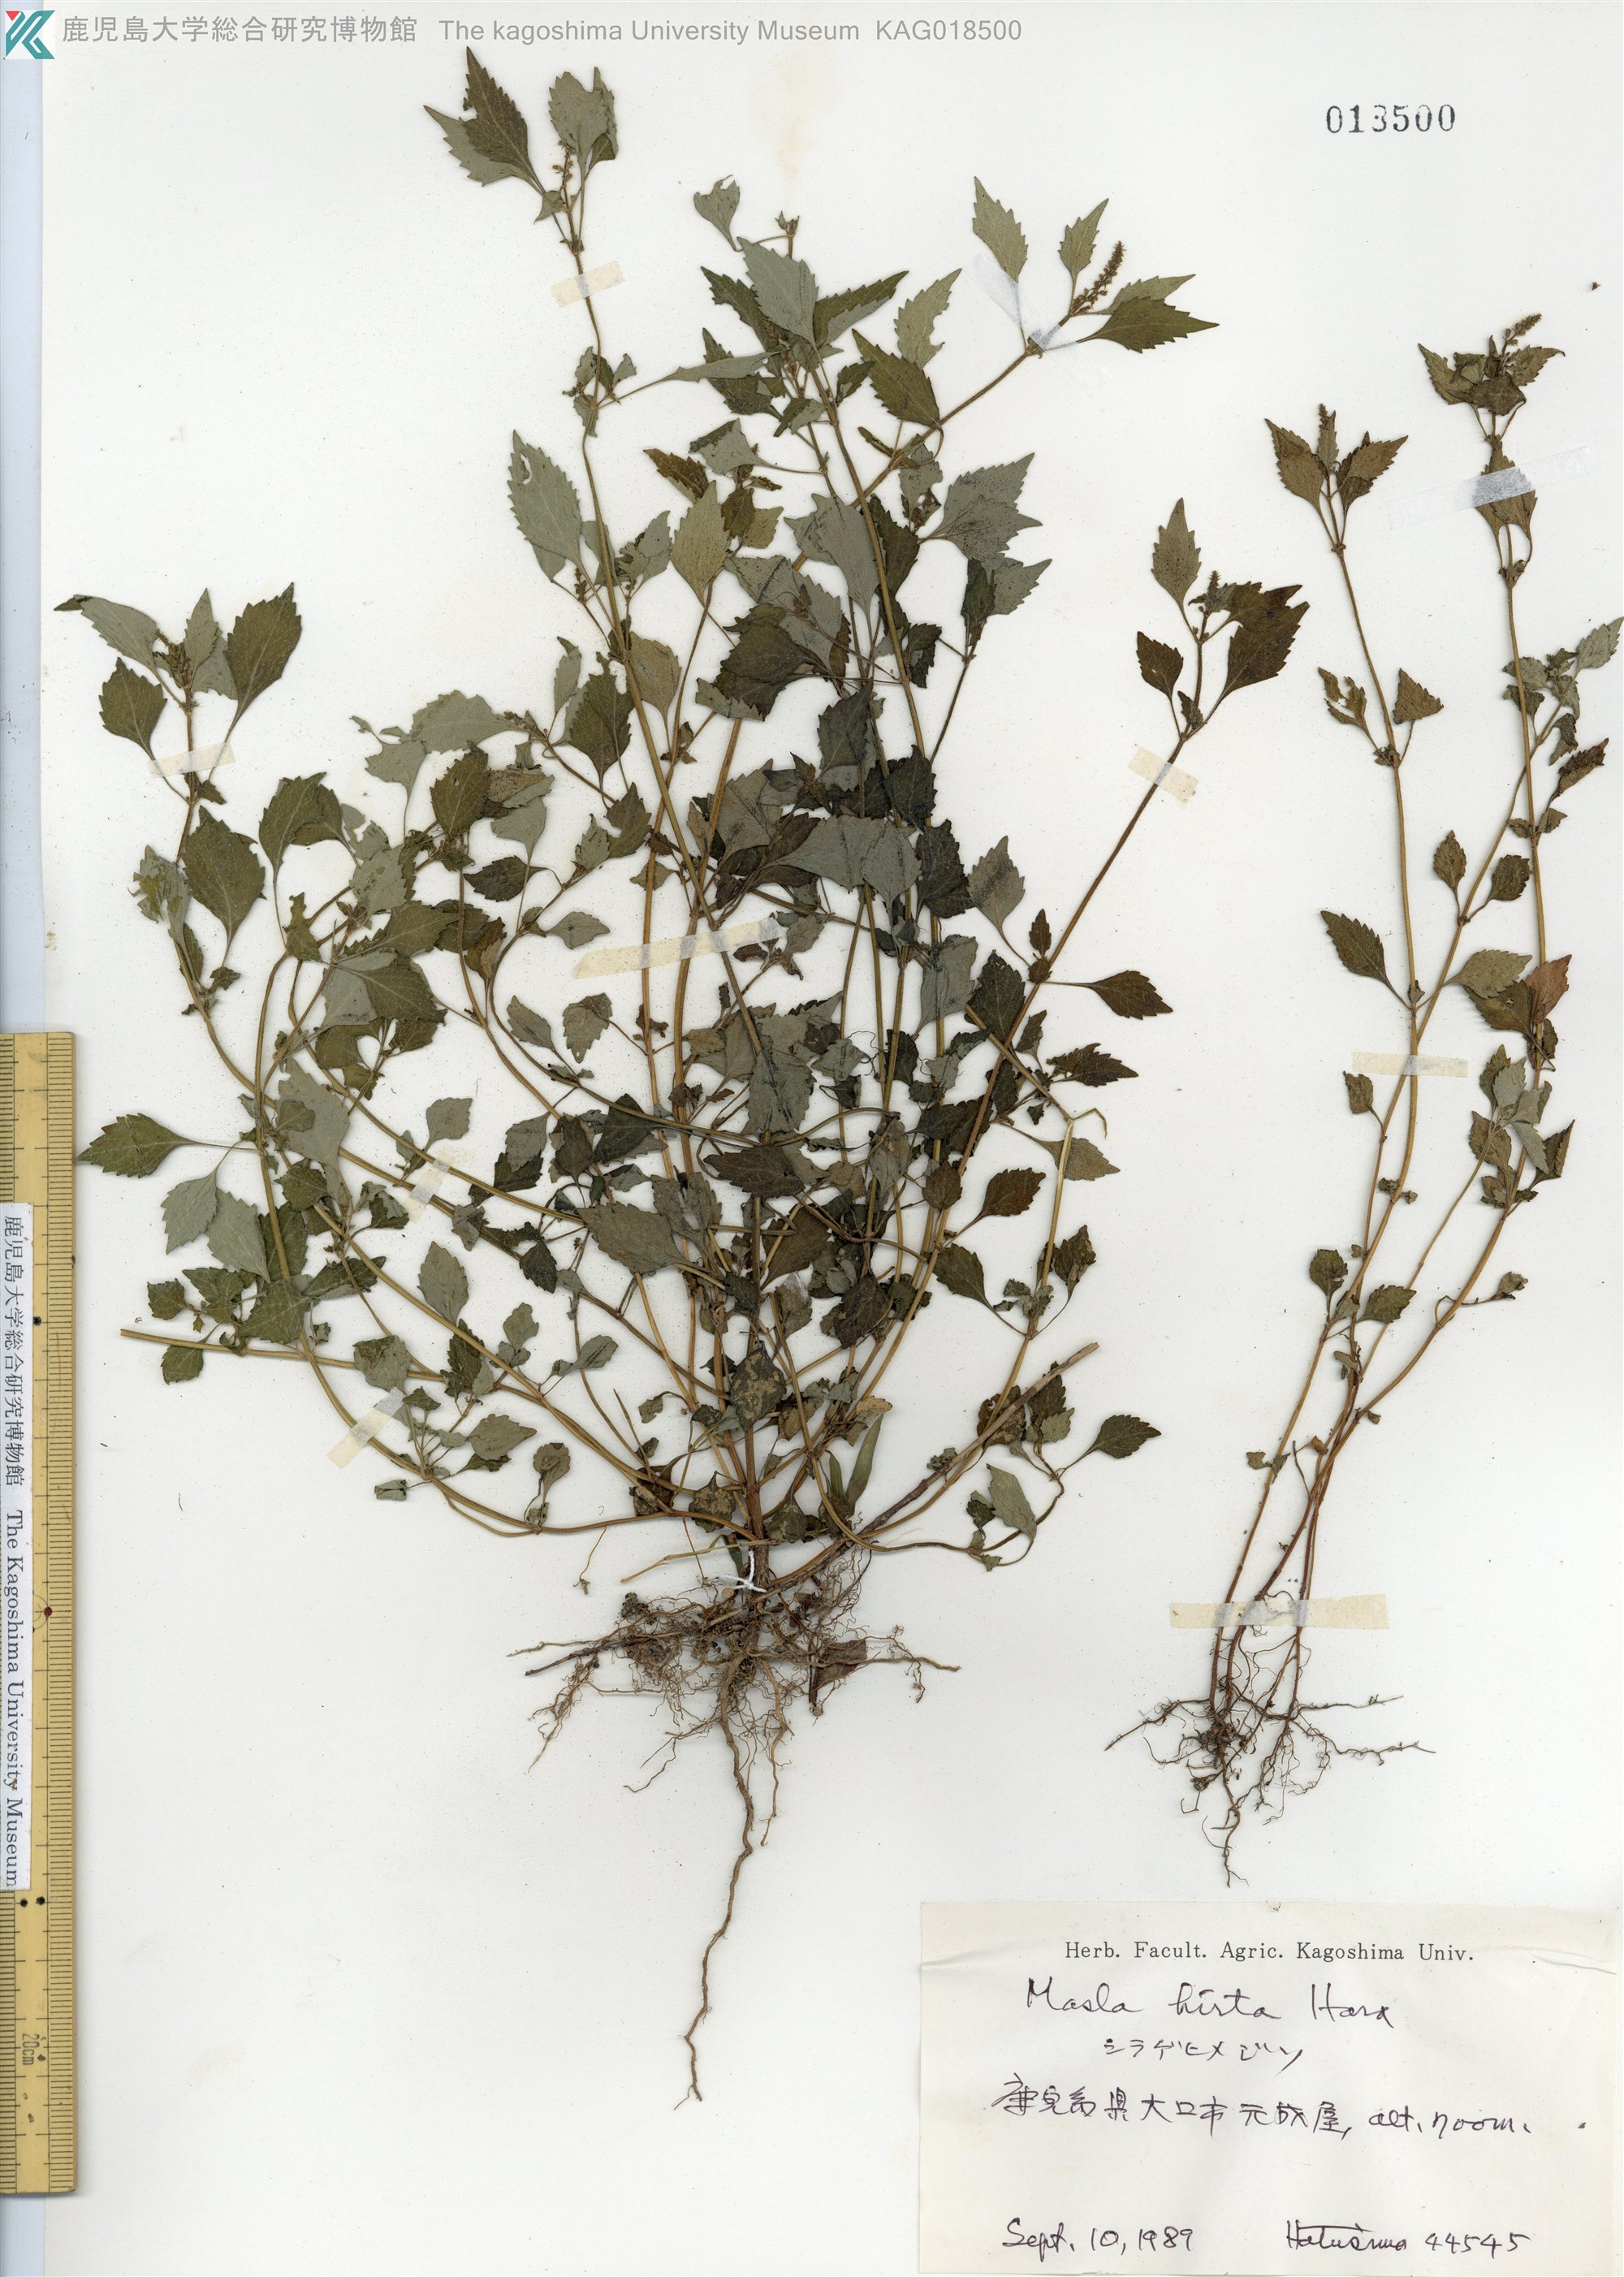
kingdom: Plantae
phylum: Tracheophyta
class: Magnoliopsida
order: Lamiales
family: Lamiaceae
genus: Mosla
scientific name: Mosla dianthera
